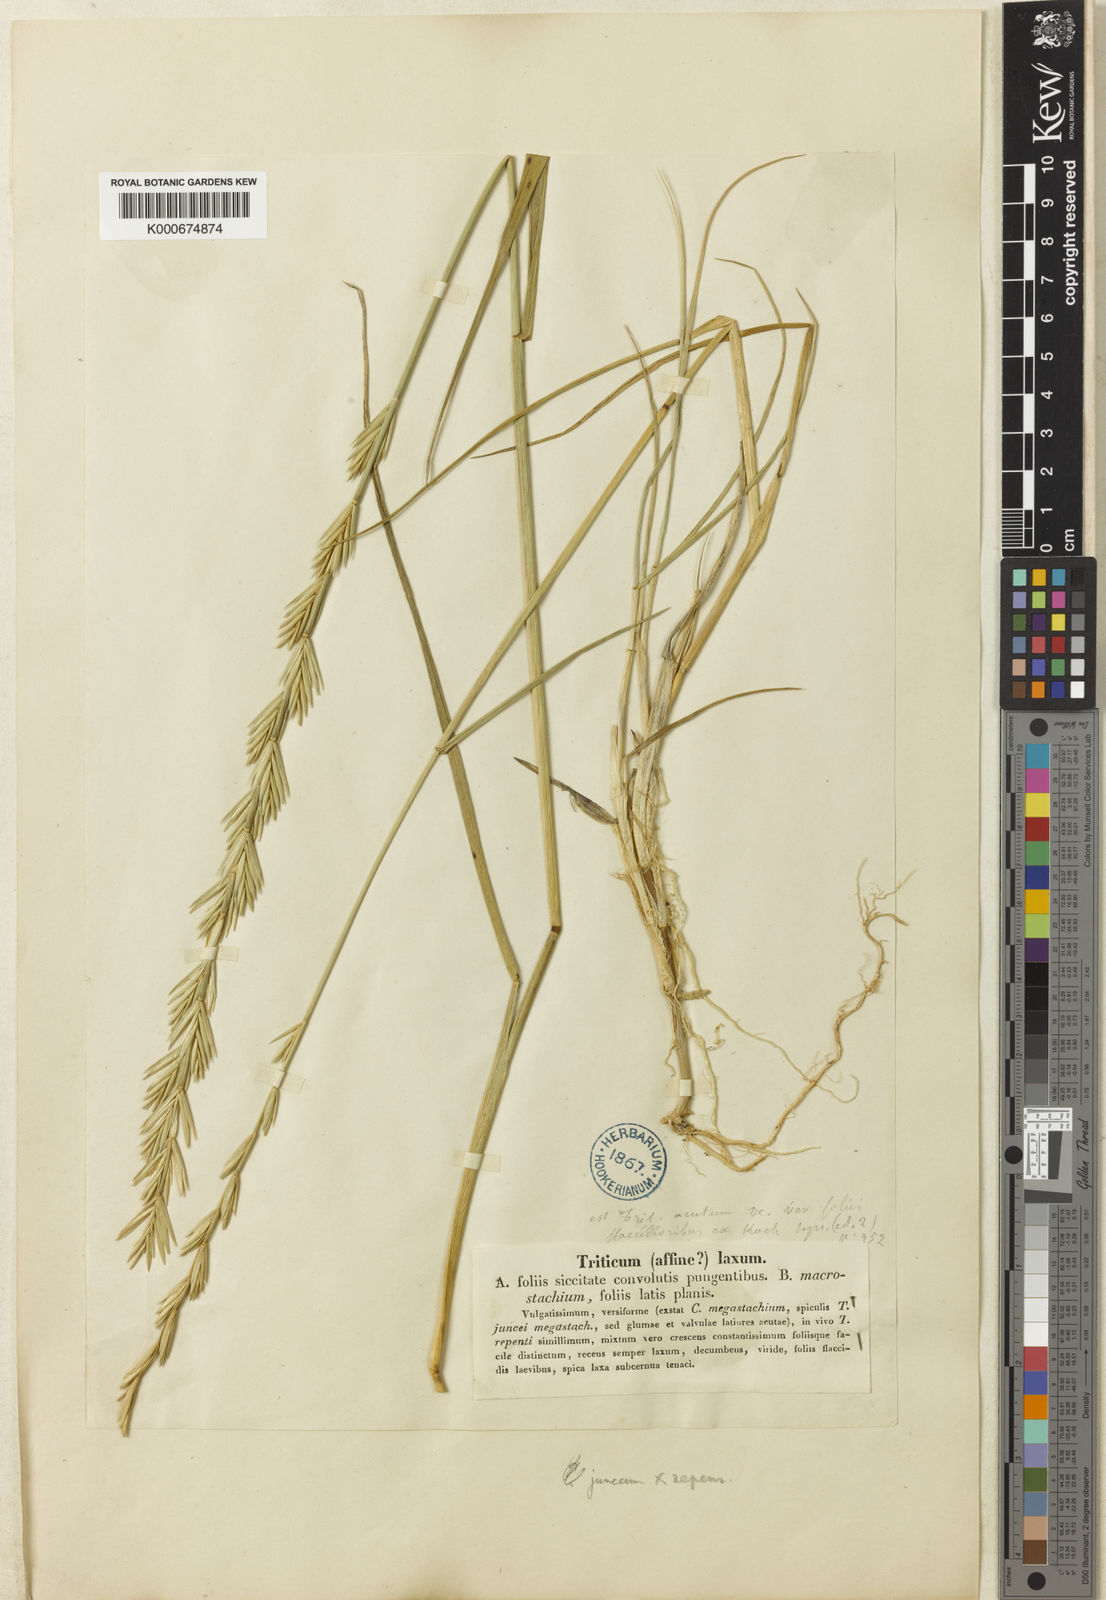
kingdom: Plantae
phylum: Tracheophyta
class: Liliopsida
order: Poales
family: Poaceae
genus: Elymus
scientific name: Elymus
